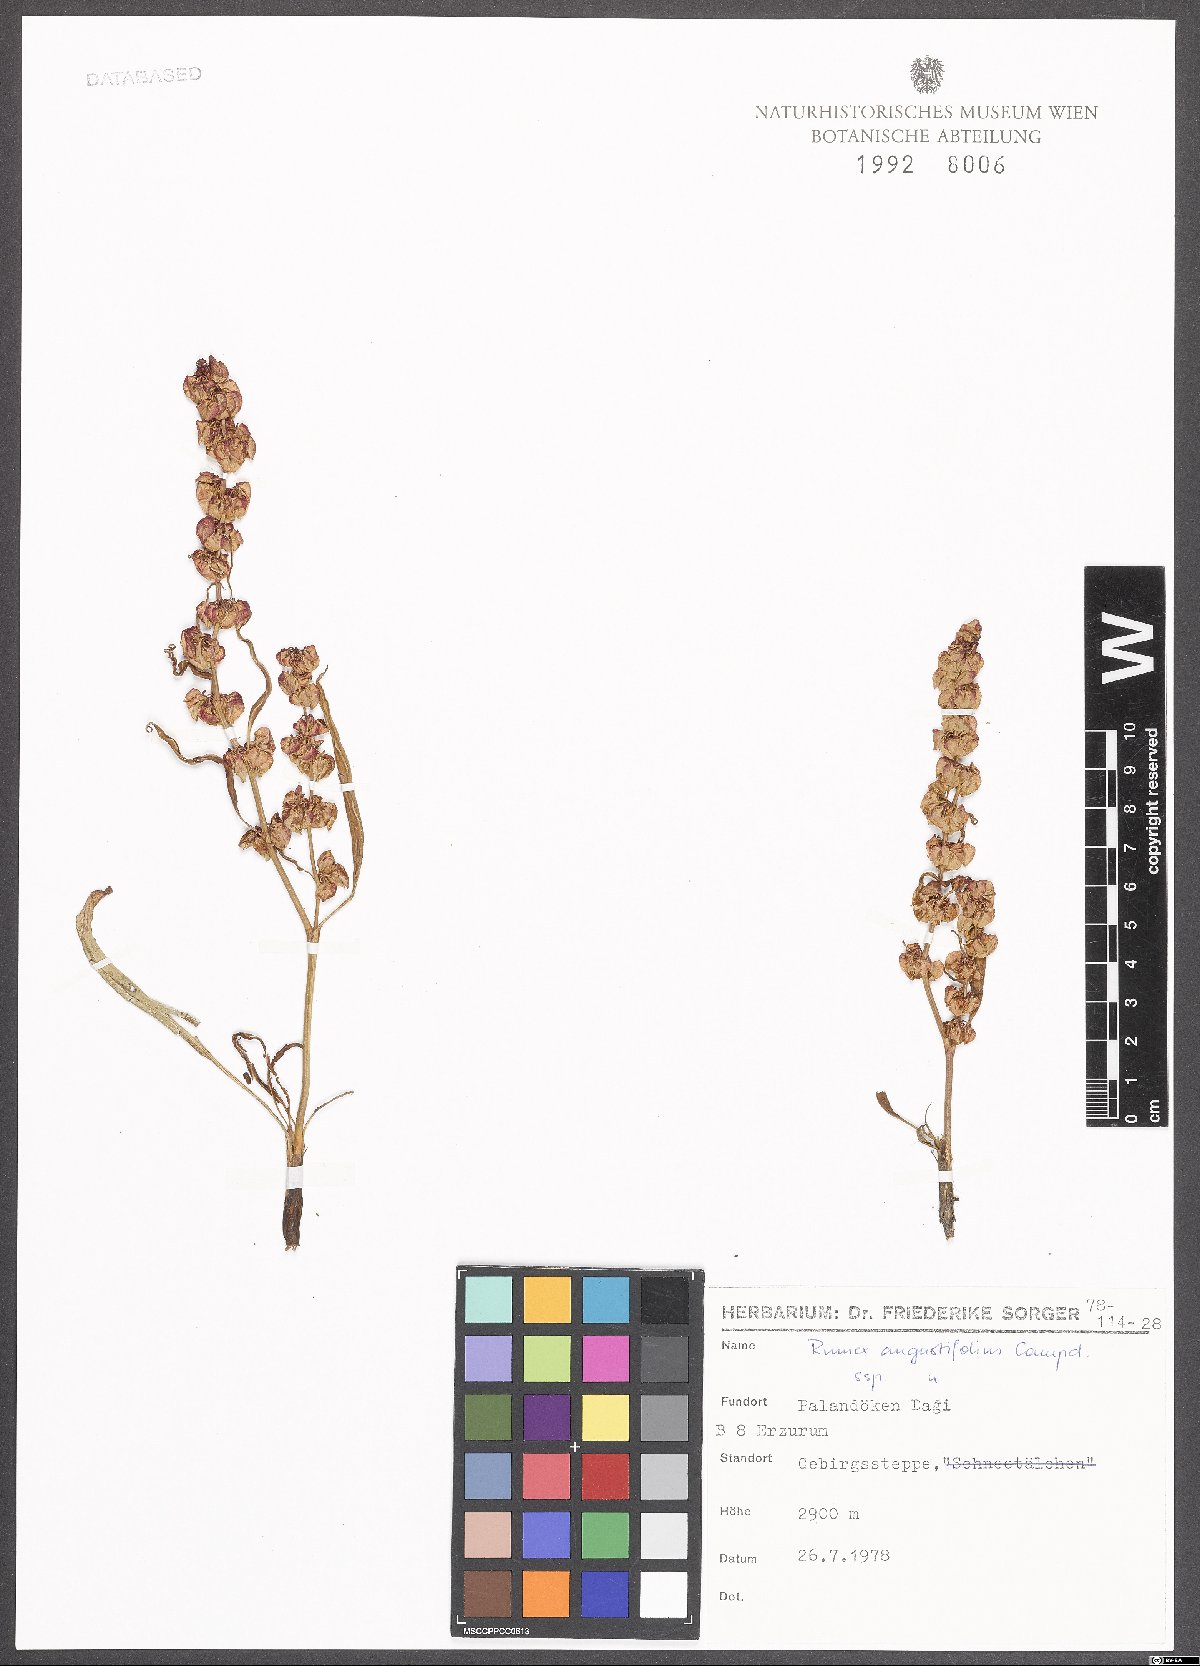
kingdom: Plantae
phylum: Tracheophyta
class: Magnoliopsida
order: Caryophyllales
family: Polygonaceae
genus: Rumex
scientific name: Rumex angustifolius
